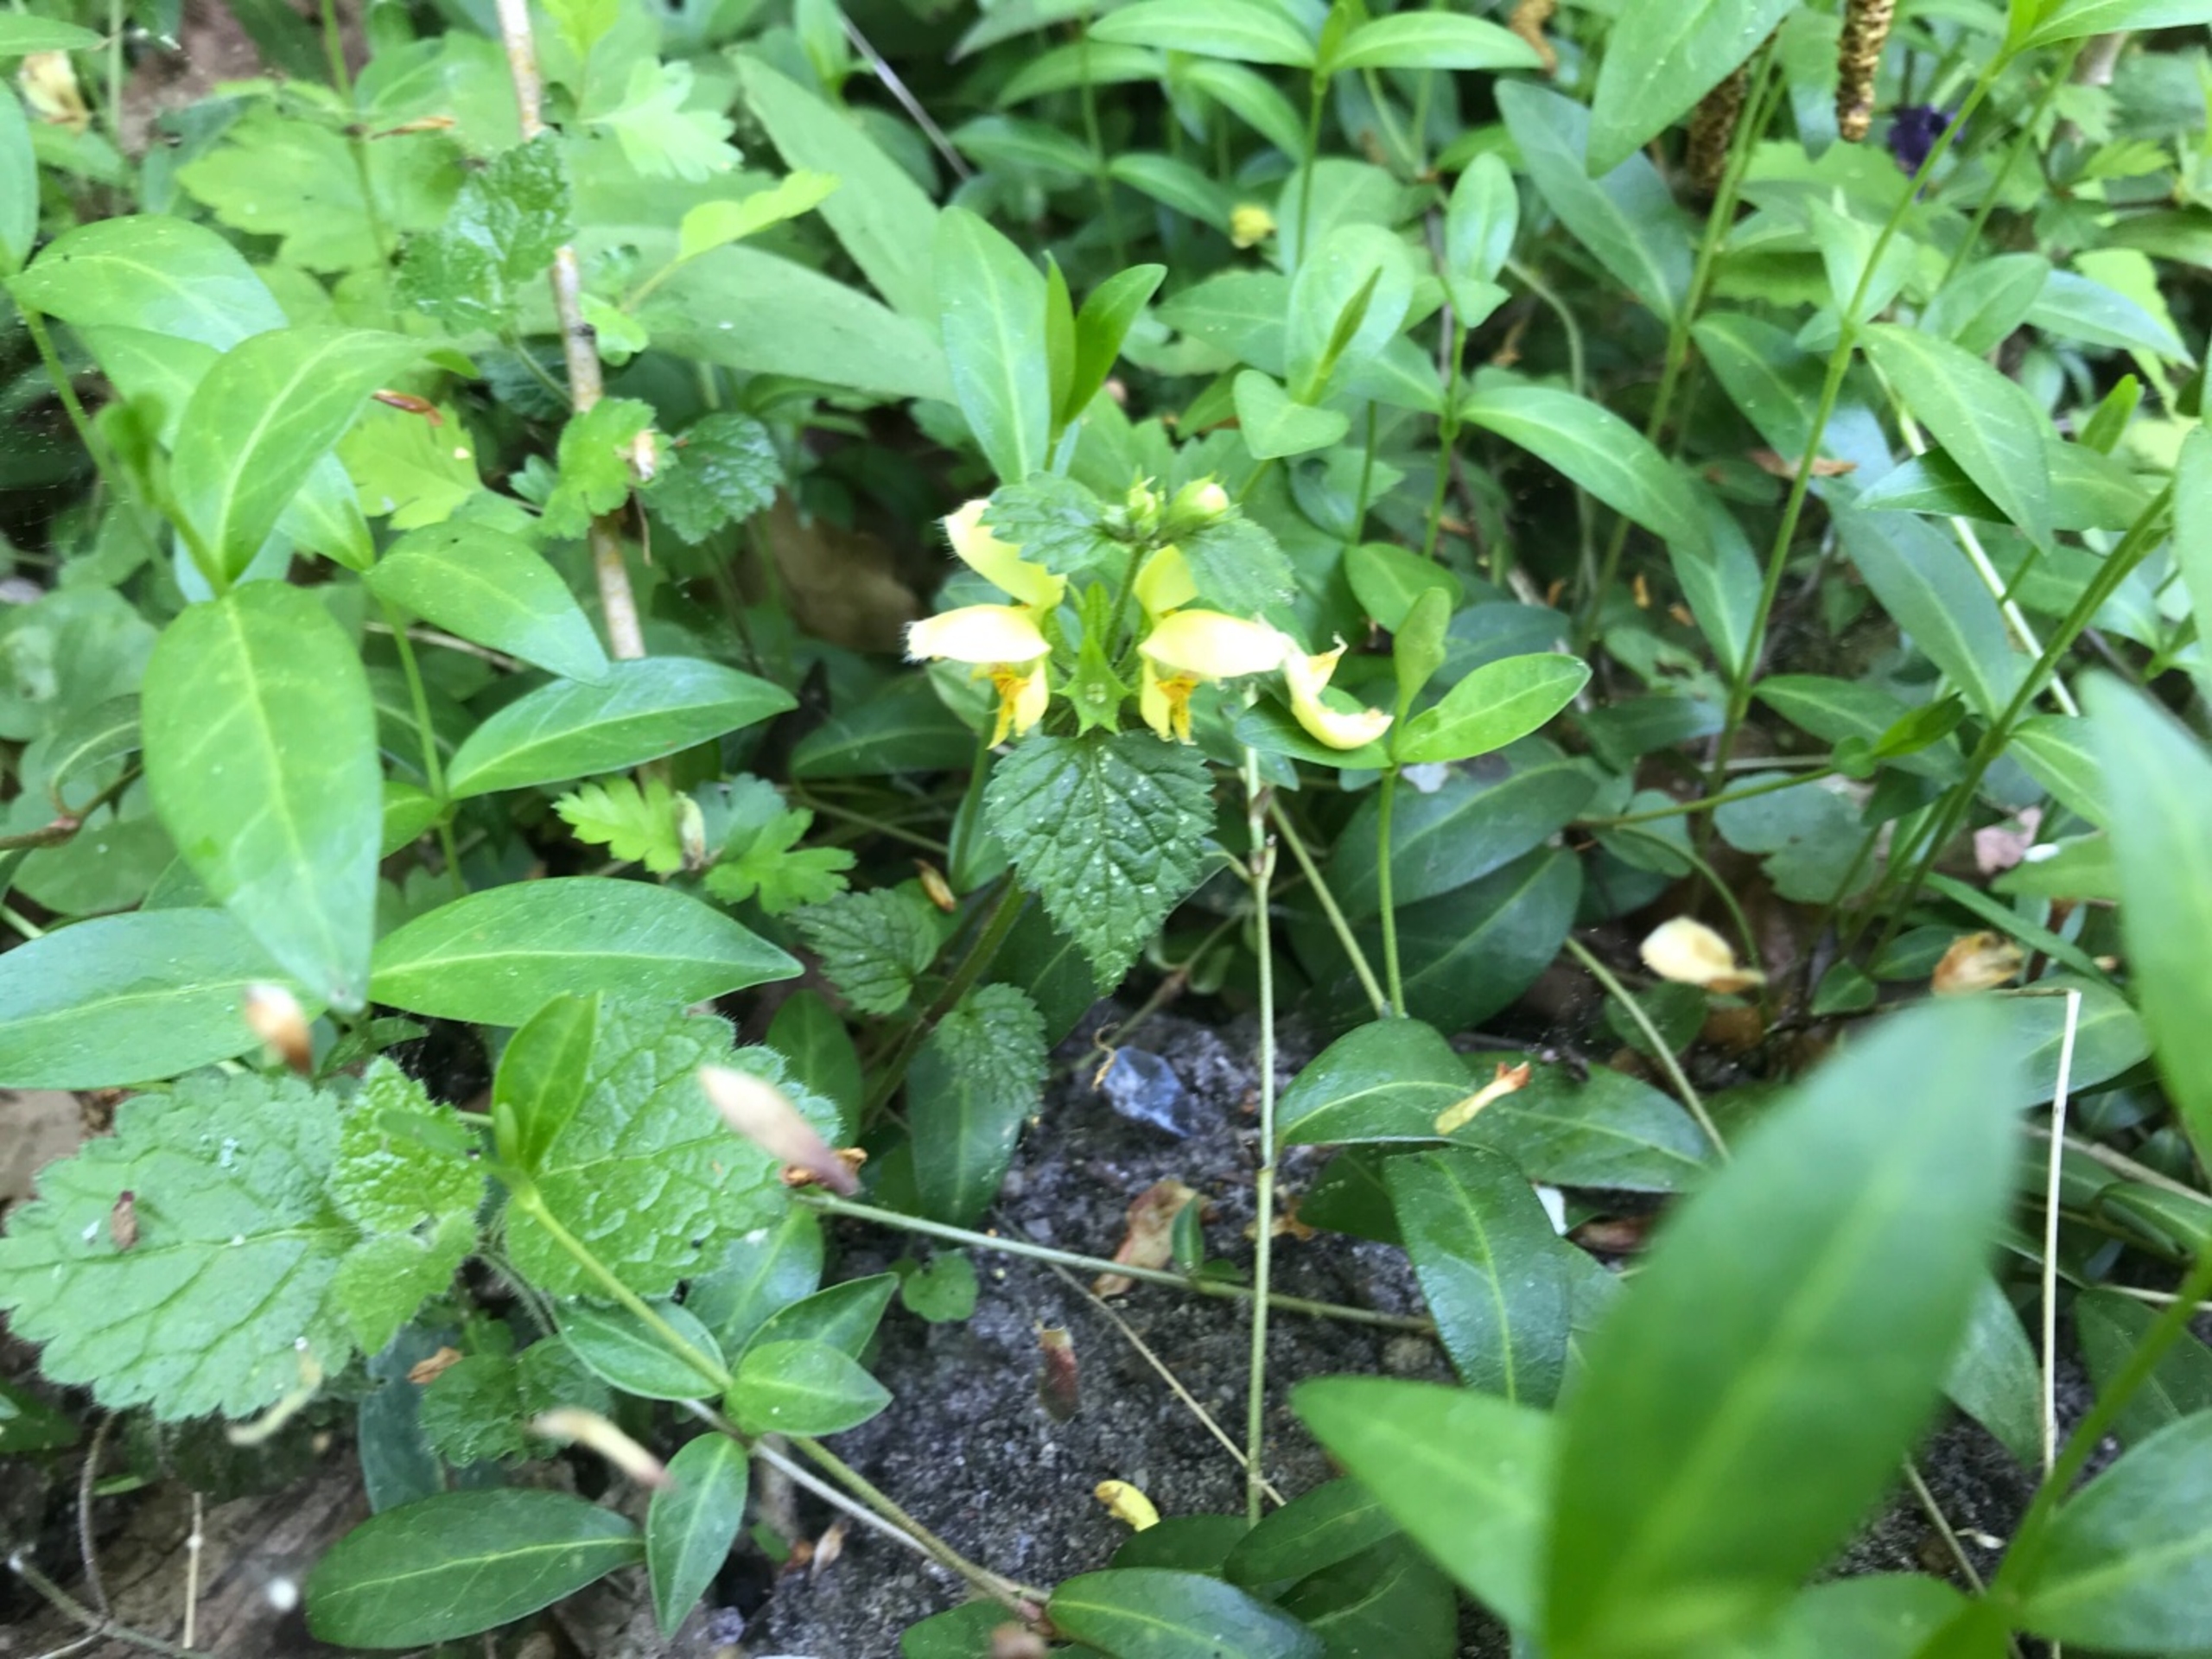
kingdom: Plantae
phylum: Tracheophyta
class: Magnoliopsida
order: Lamiales
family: Lamiaceae
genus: Lamium
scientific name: Lamium galeobdolon
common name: Almindelig guldnælde
